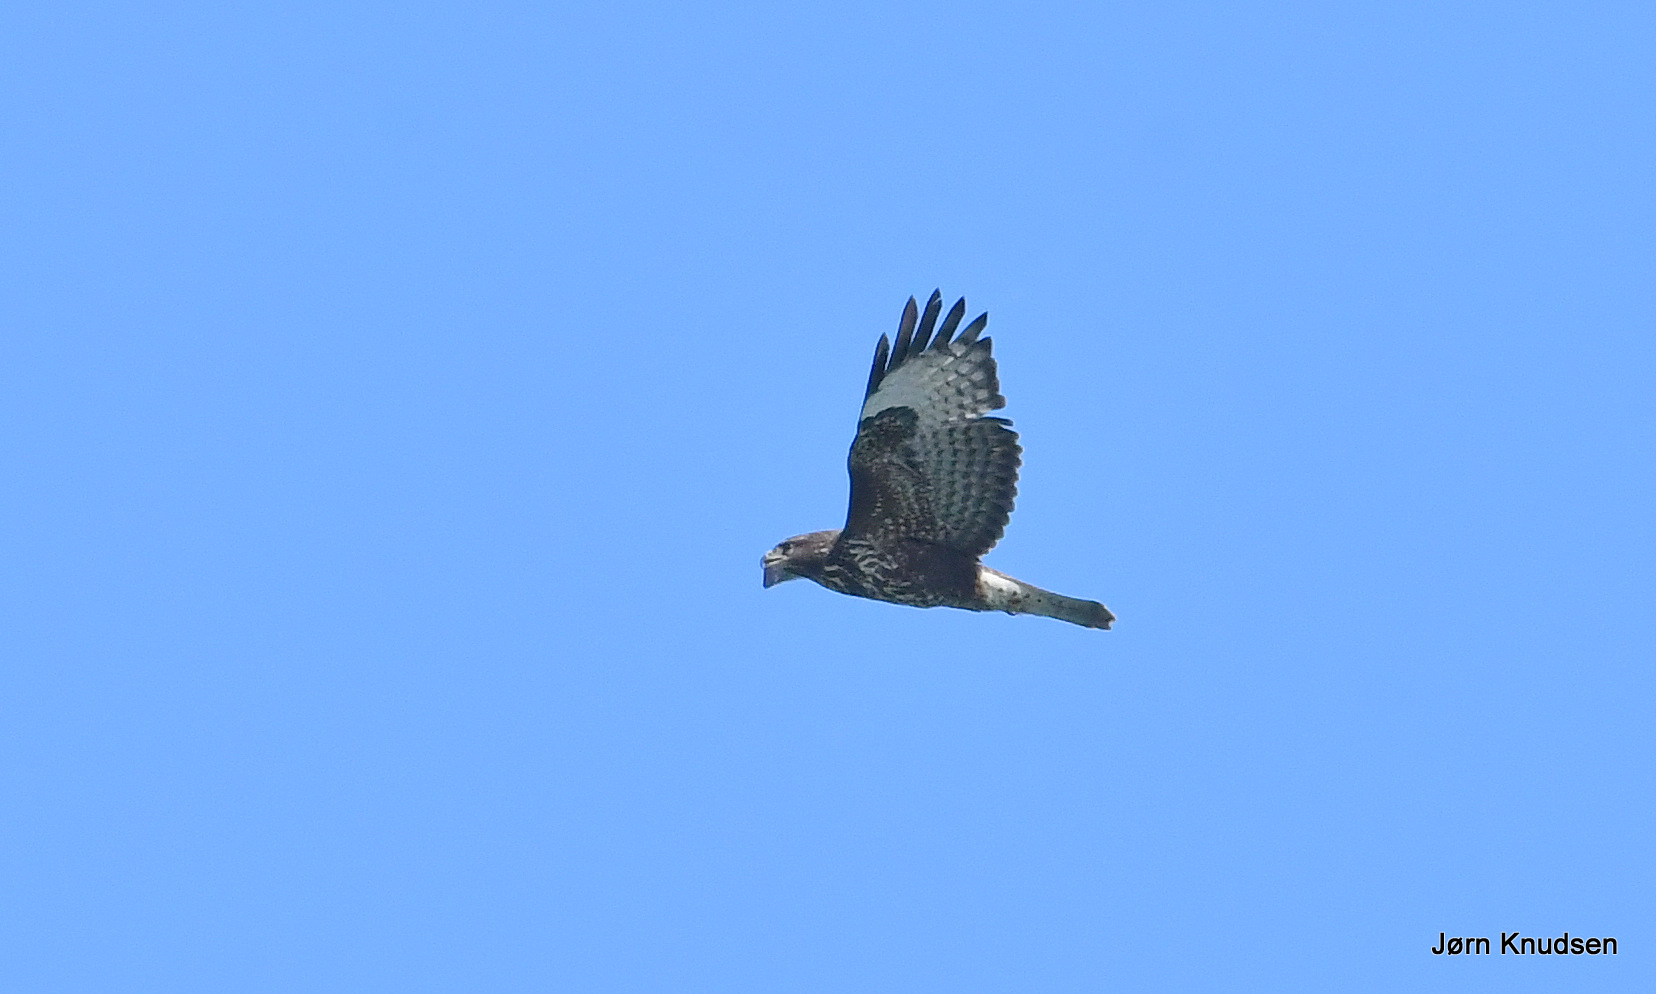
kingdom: Animalia
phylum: Chordata
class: Aves
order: Accipitriformes
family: Accipitridae
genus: Buteo
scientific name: Buteo buteo
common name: Musvåge
